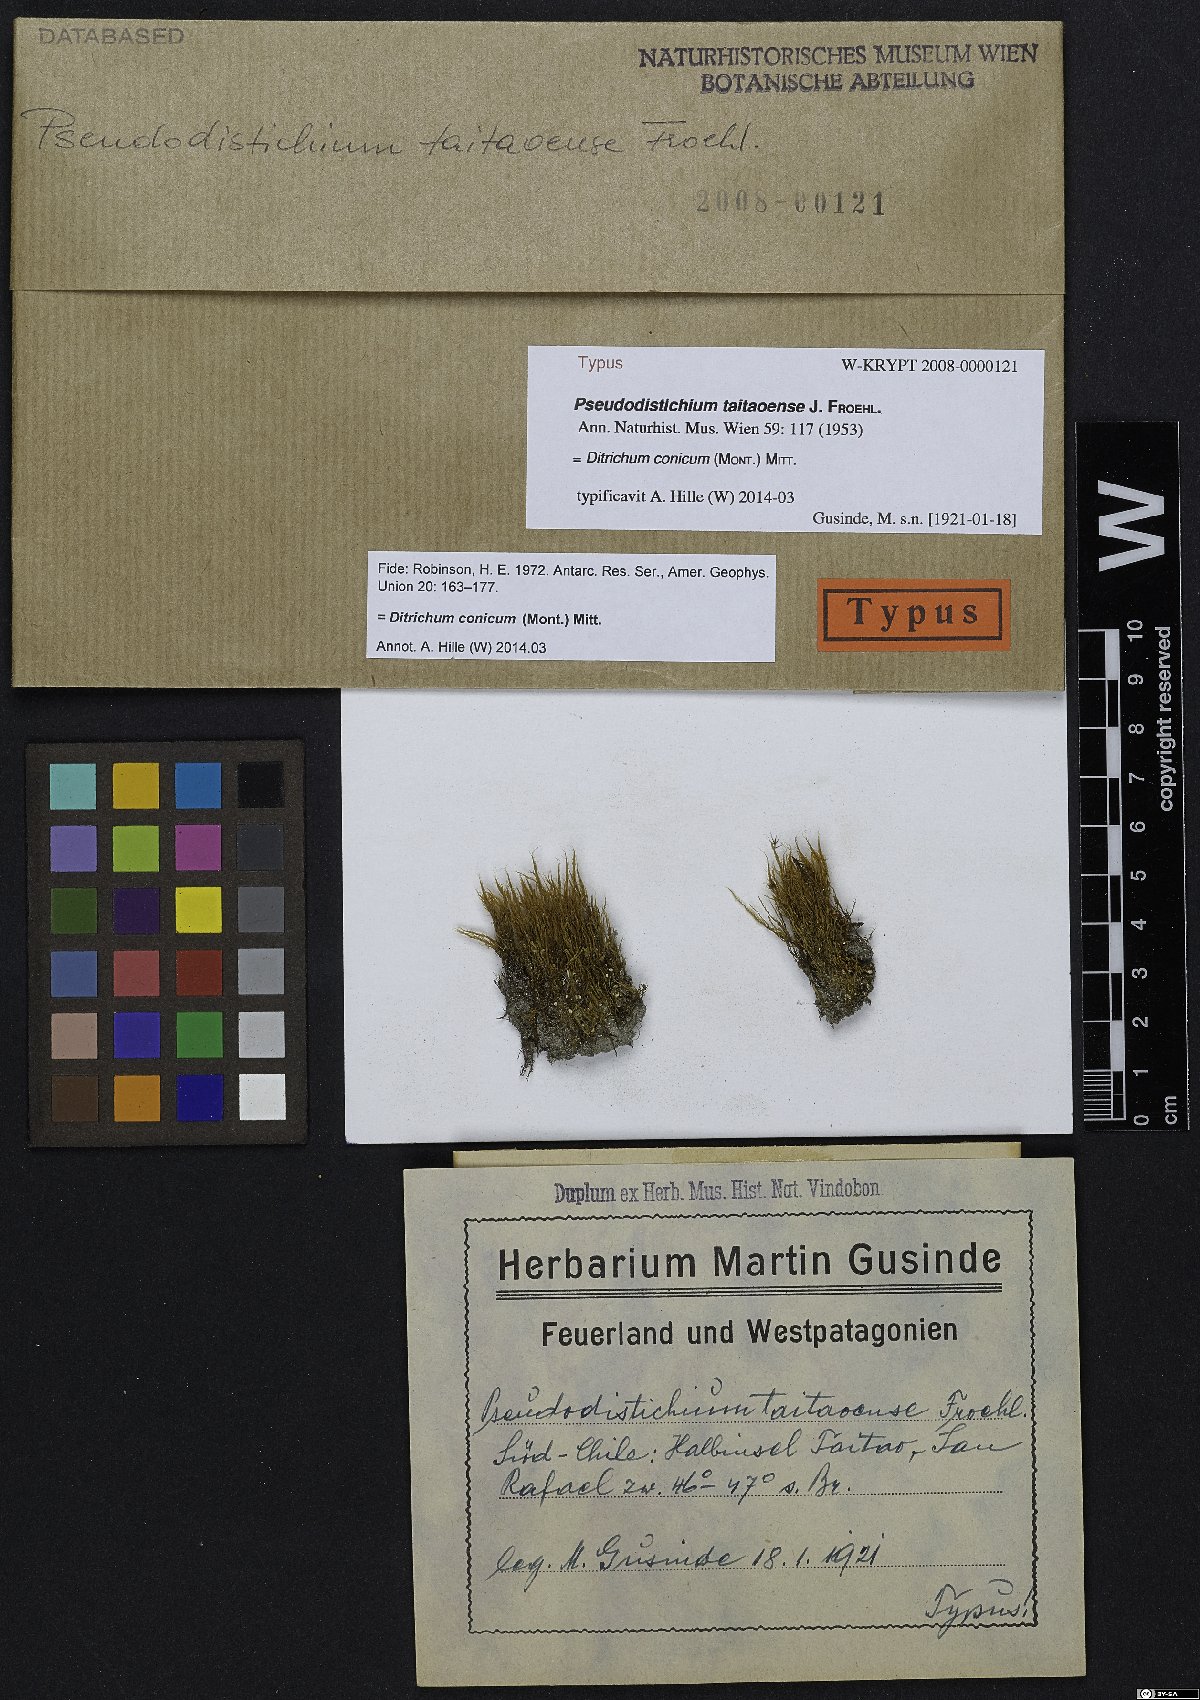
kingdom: Plantae
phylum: Bryophyta
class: Bryopsida
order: Dicranales
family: Ditrichaceae
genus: Ditrichum
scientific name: Ditrichum conicum
